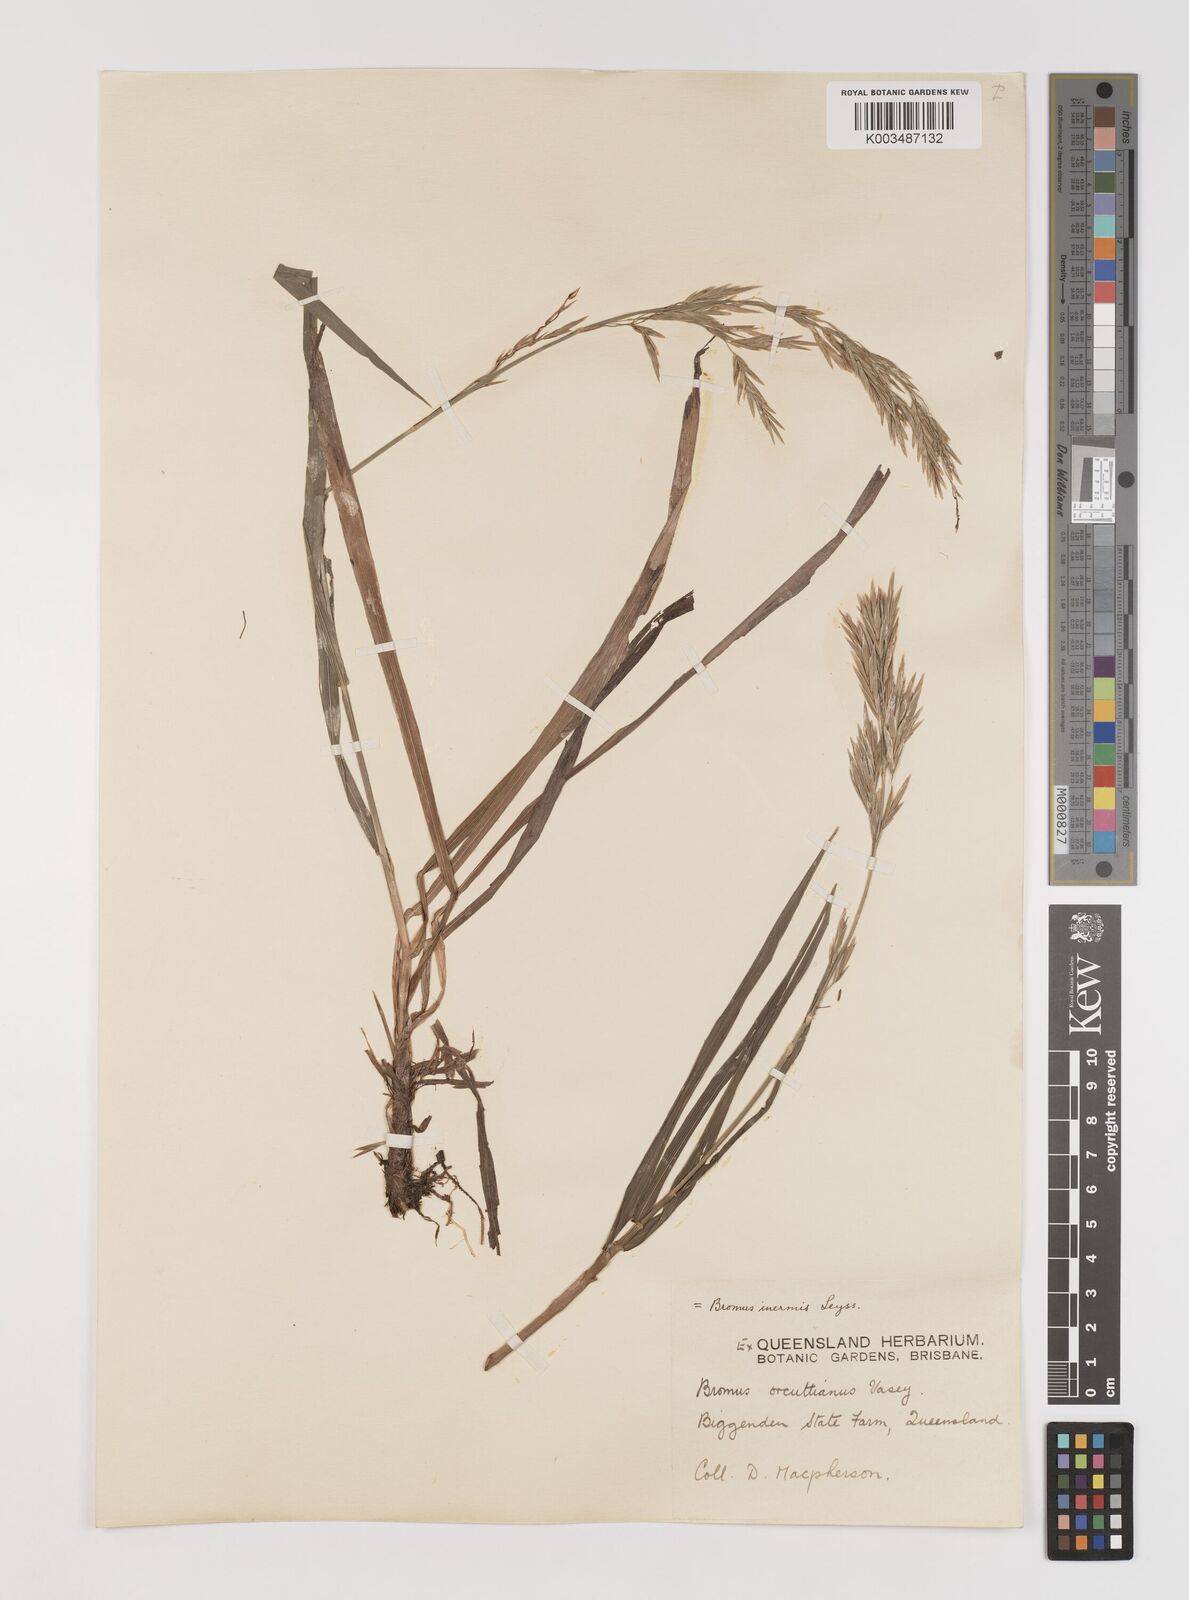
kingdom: Plantae
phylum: Tracheophyta
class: Liliopsida
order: Poales
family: Poaceae
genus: Bromus
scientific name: Bromus
